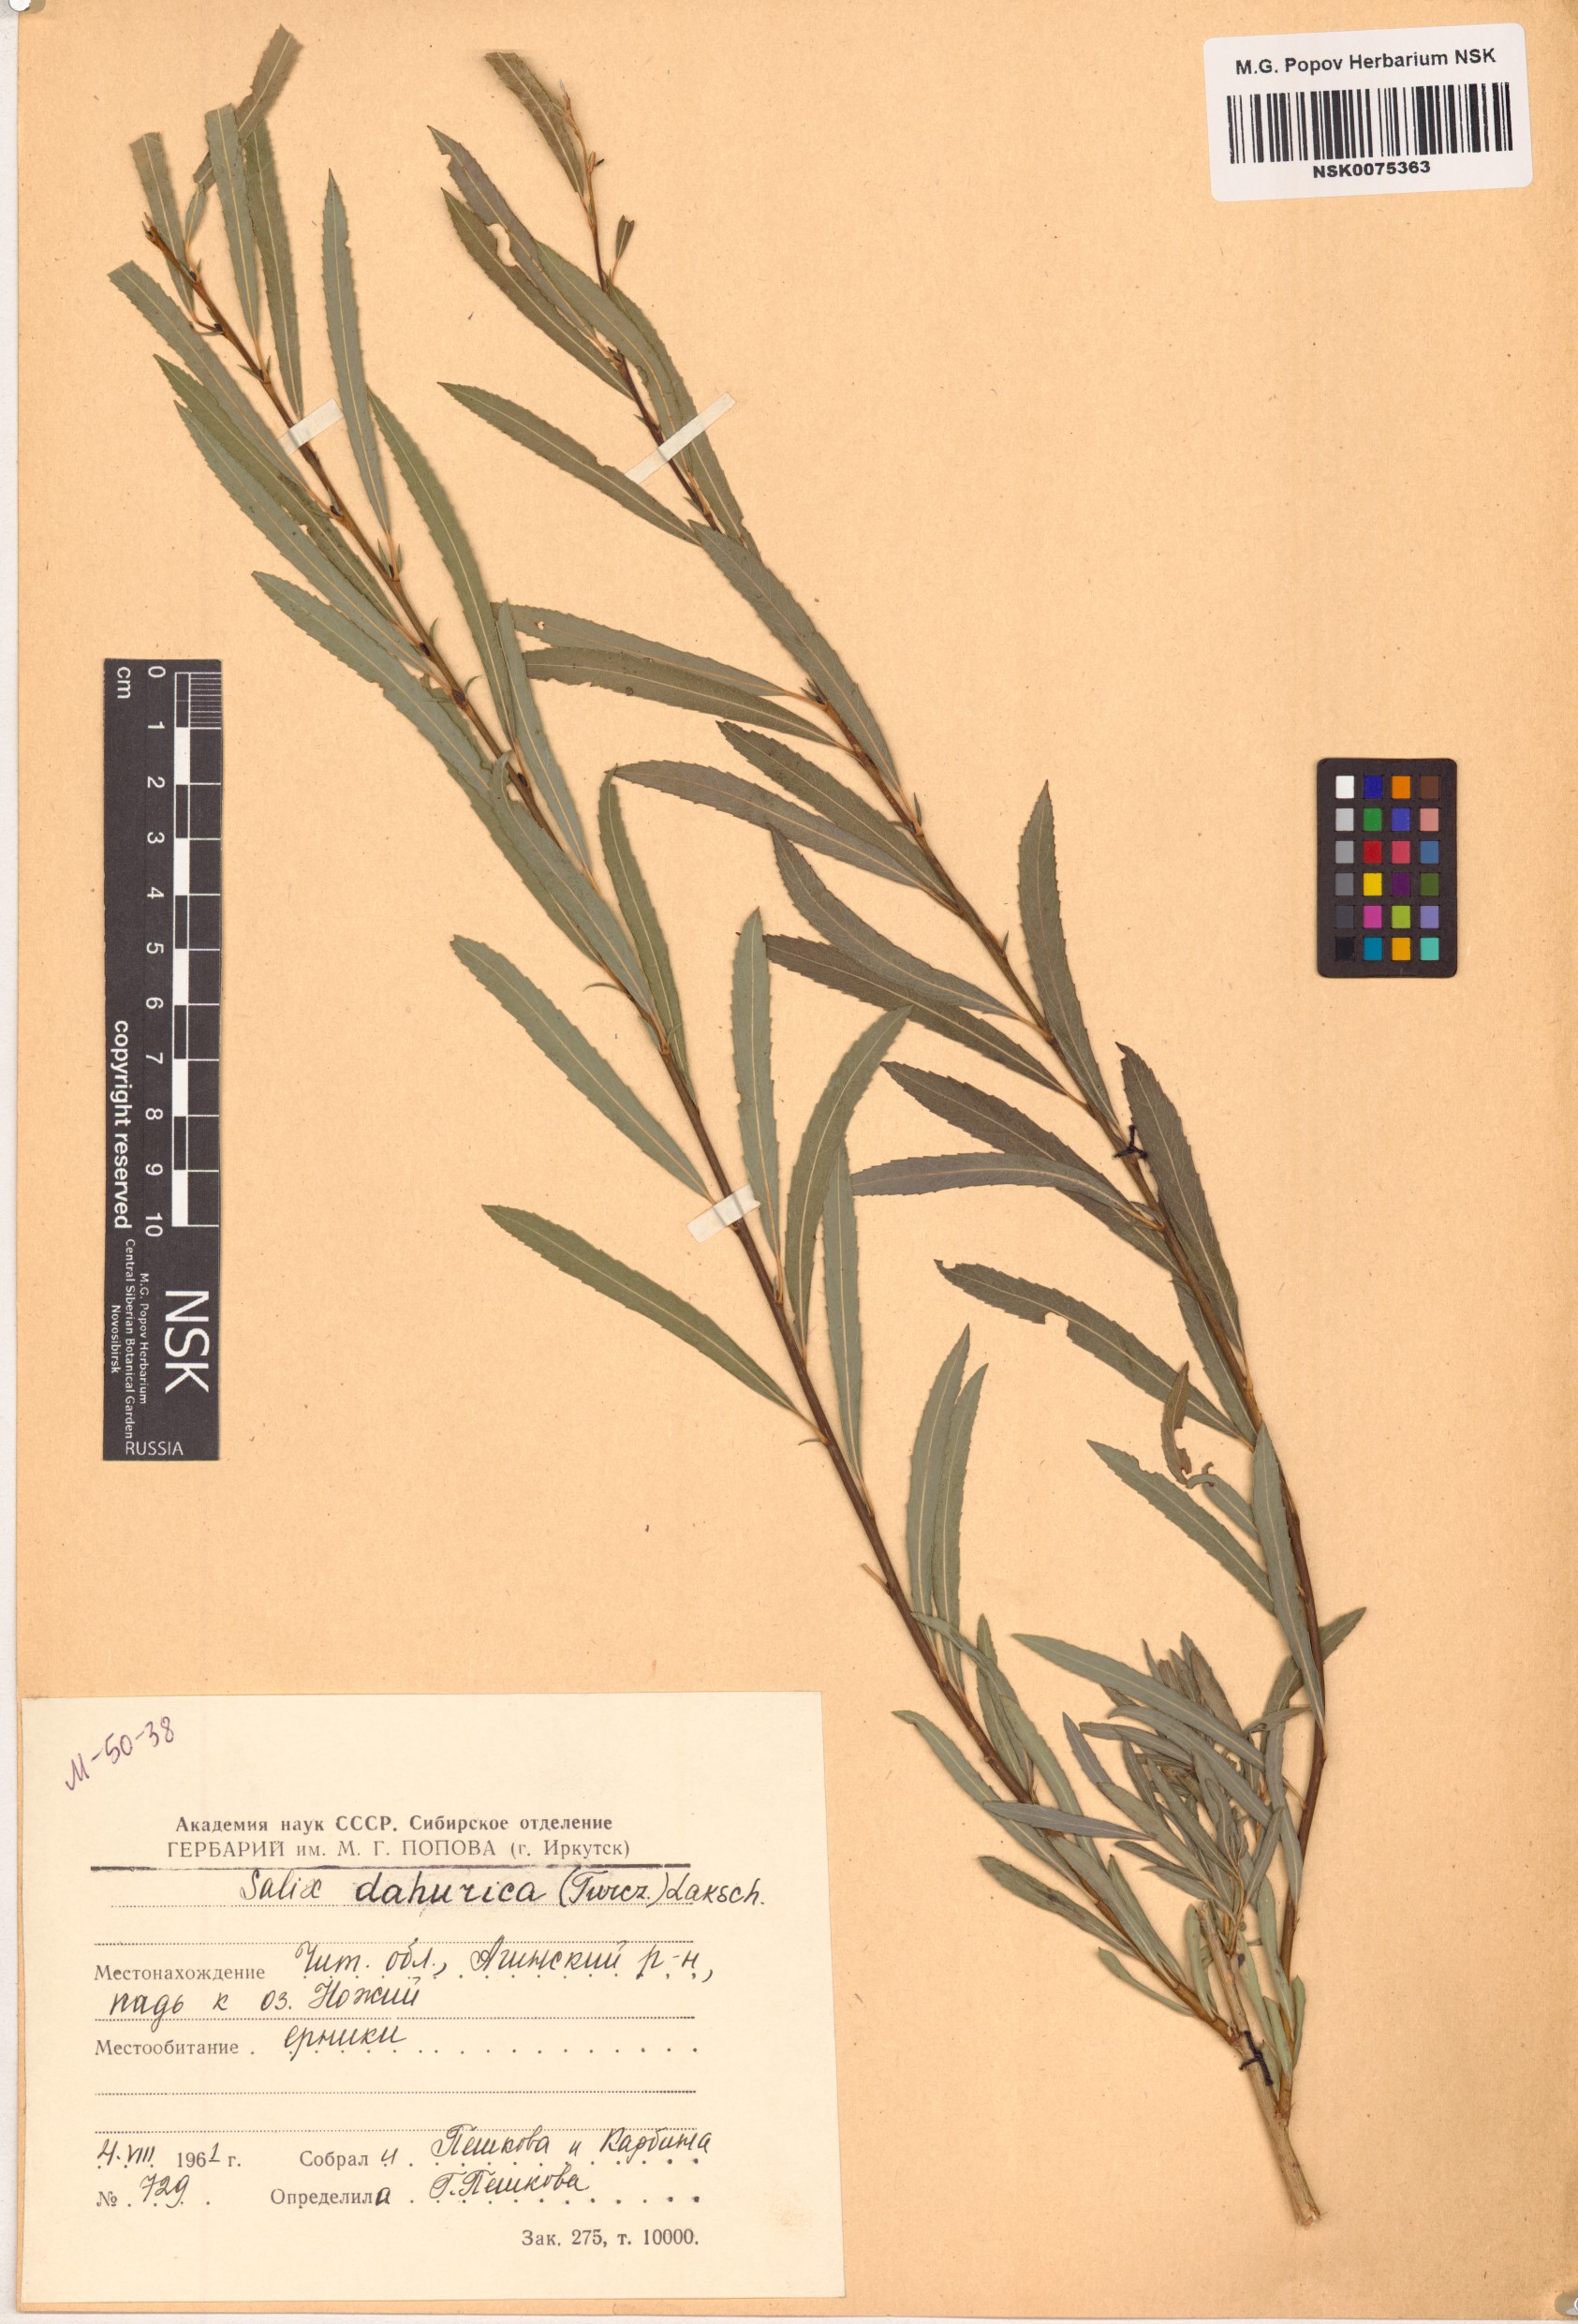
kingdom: Plantae
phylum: Tracheophyta
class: Magnoliopsida
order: Malpighiales
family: Salicaceae
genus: Salix
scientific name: Salix
